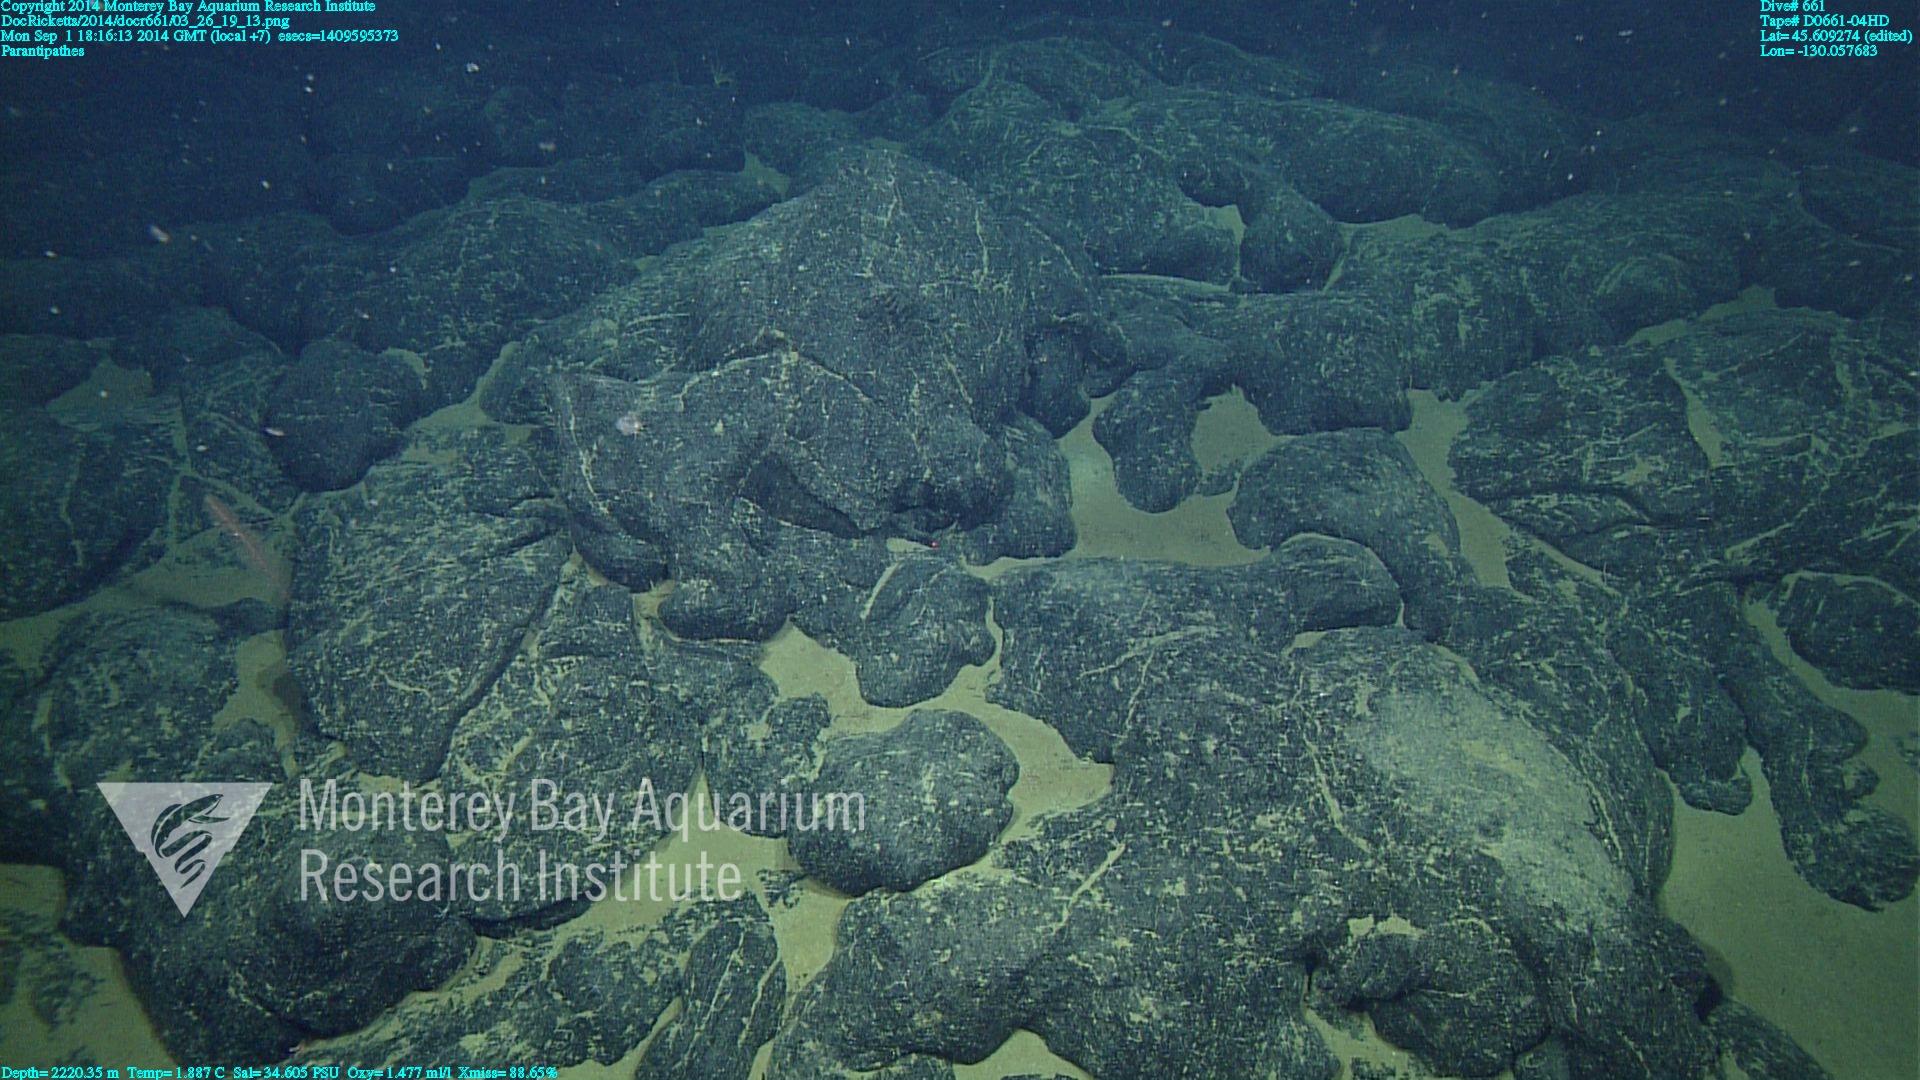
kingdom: Animalia
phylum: Cnidaria
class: Anthozoa
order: Antipatharia
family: Schizopathidae
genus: Parantipathes
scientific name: Parantipathes
